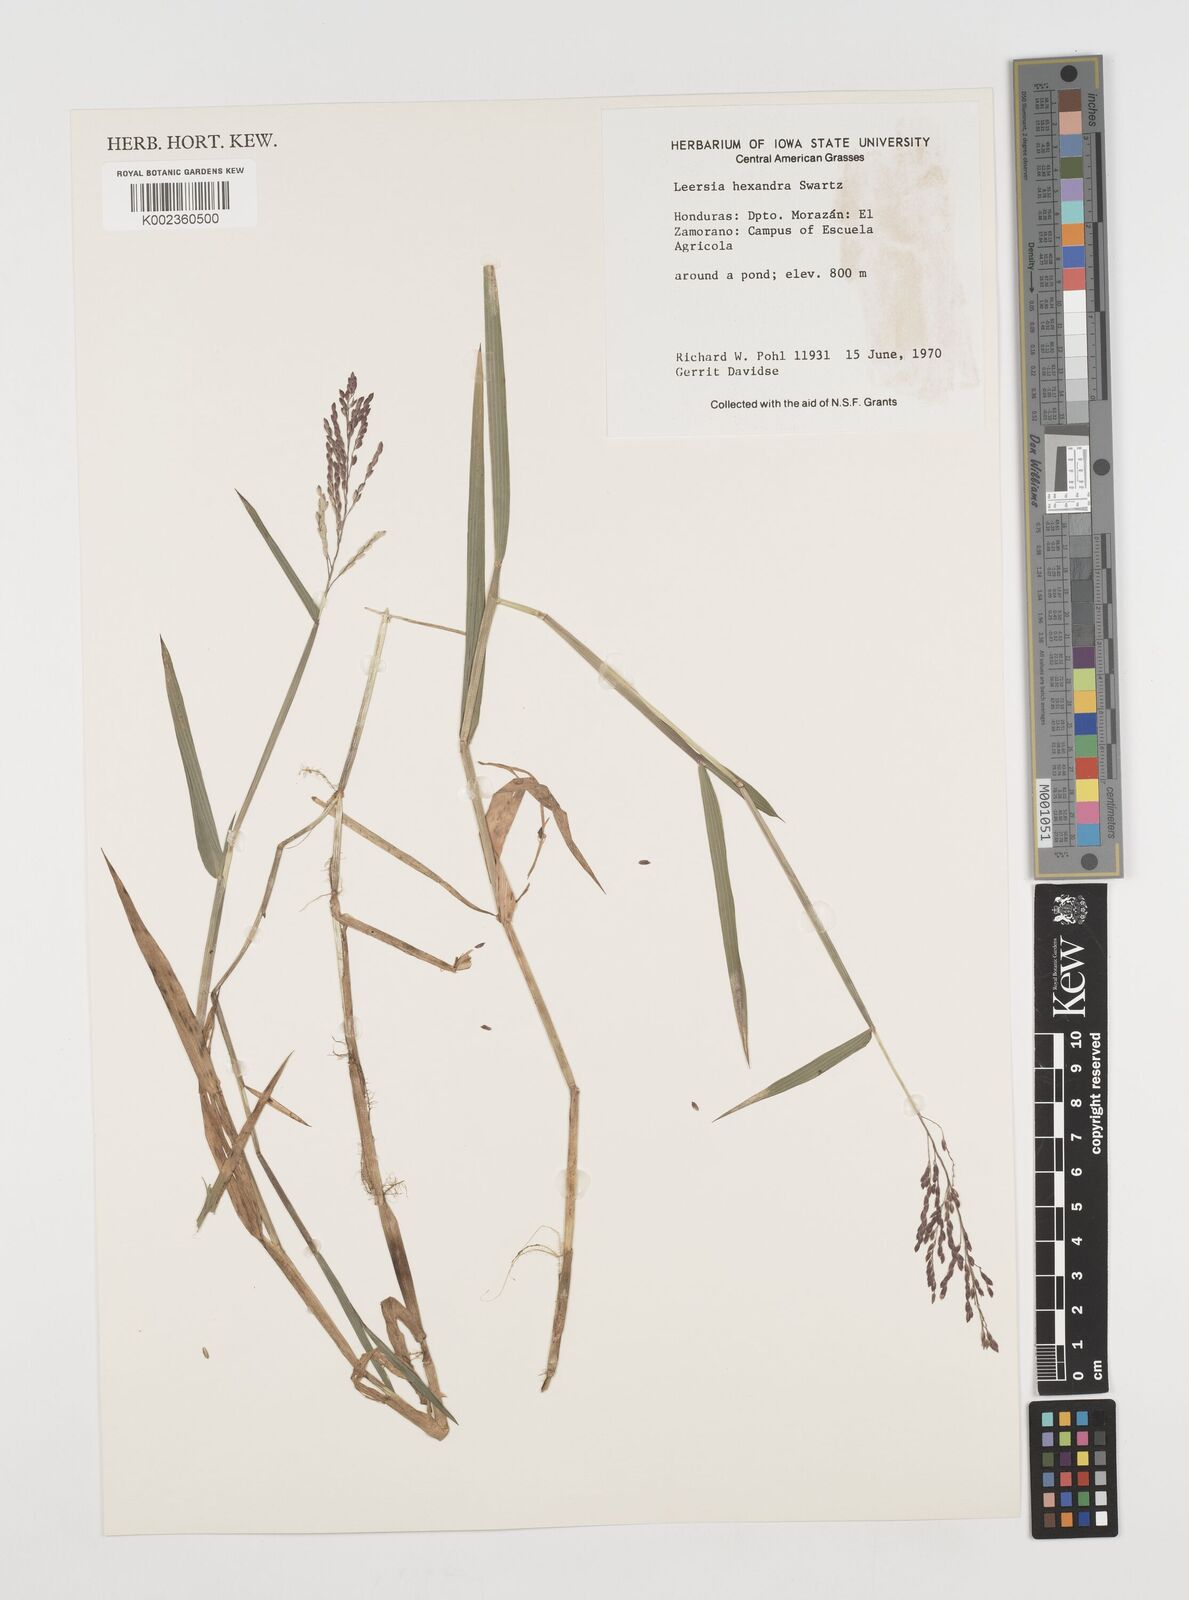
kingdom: Plantae
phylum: Tracheophyta
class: Liliopsida
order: Poales
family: Poaceae
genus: Leersia
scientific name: Leersia hexandra
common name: Southern cut grass
